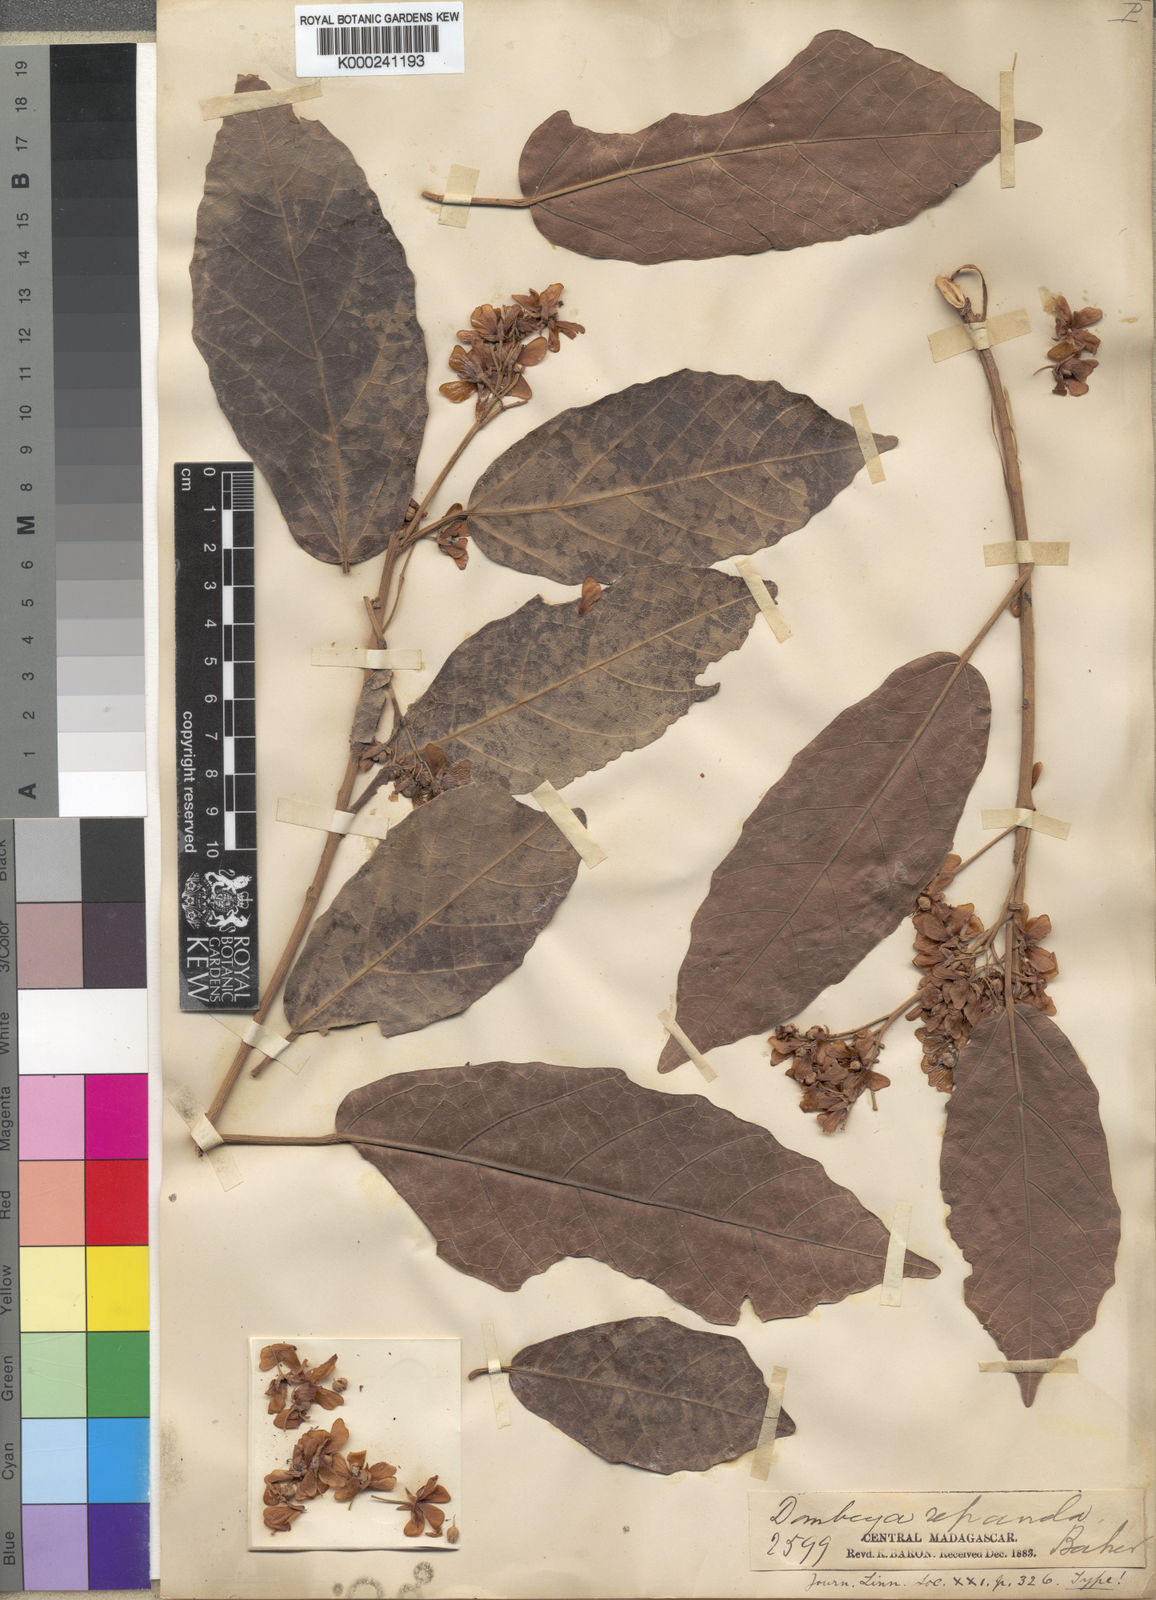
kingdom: Plantae
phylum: Tracheophyta
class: Magnoliopsida
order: Malvales
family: Malvaceae
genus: Dombeya
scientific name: Dombeya repanda
